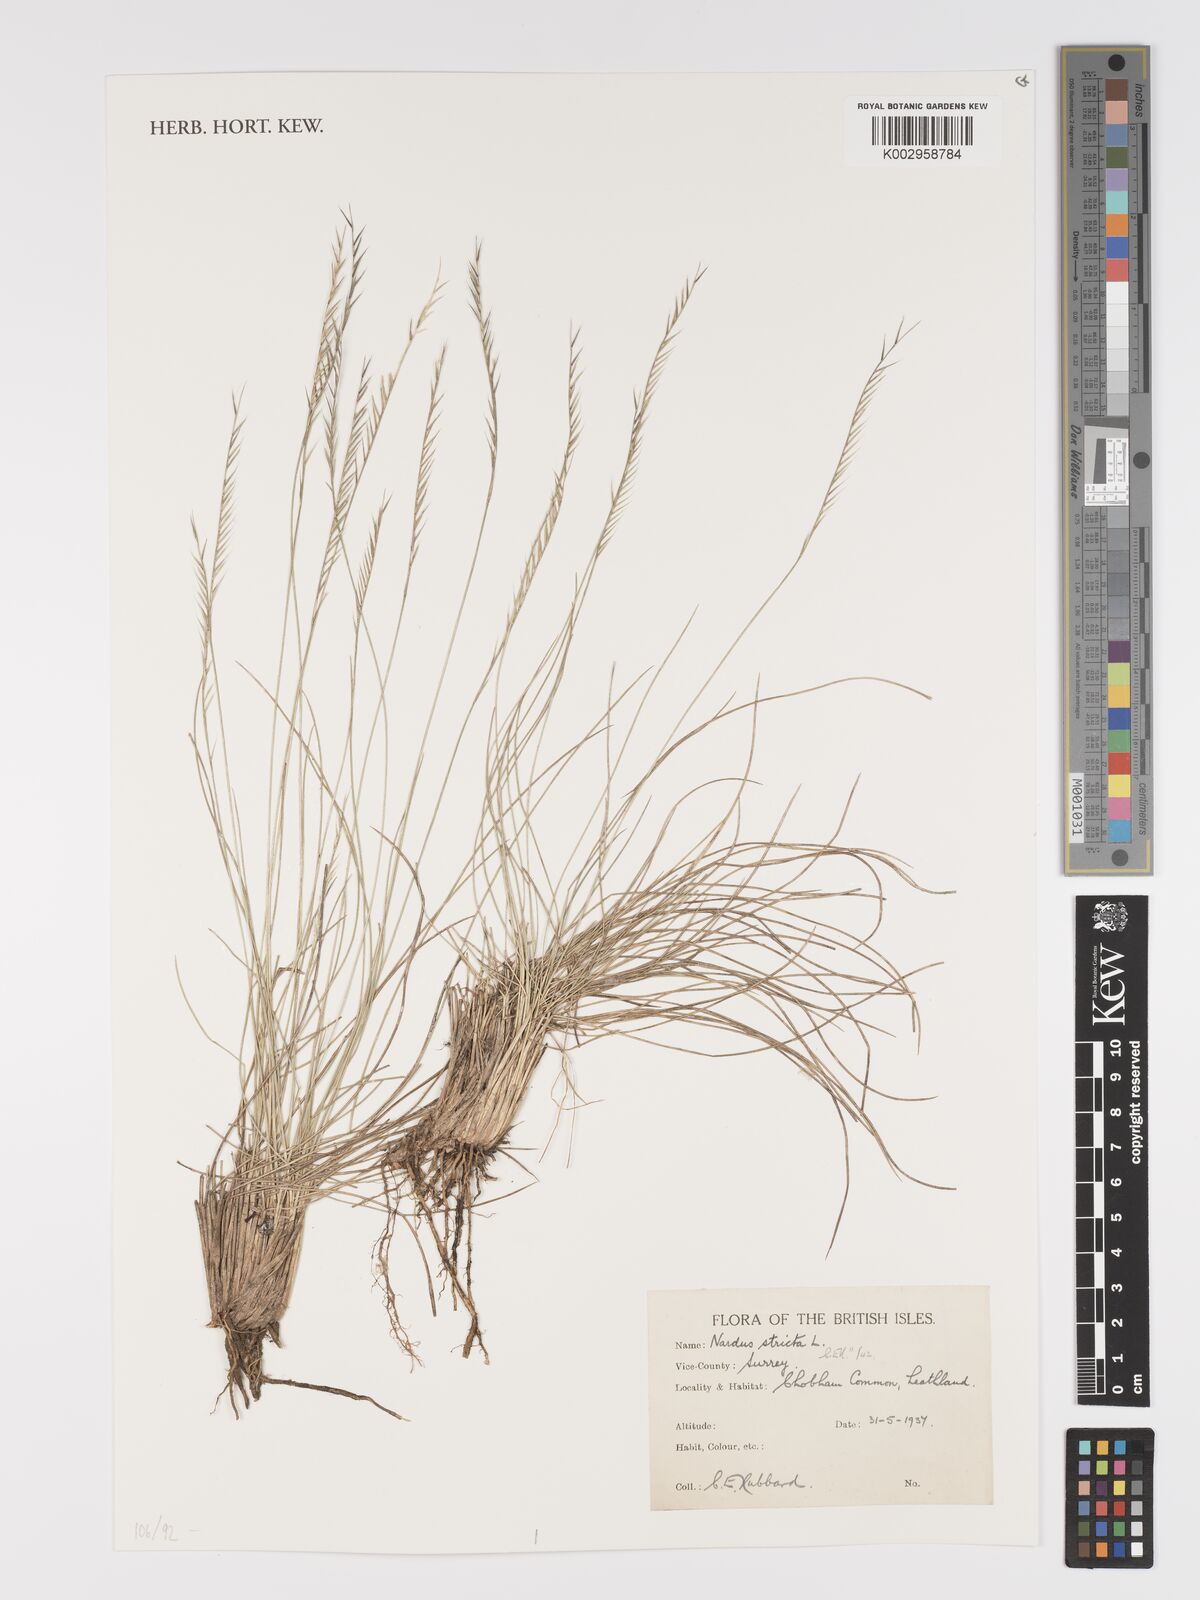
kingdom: Plantae
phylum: Tracheophyta
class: Liliopsida
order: Poales
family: Poaceae
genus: Nardus
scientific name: Nardus stricta
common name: Mat-grass
